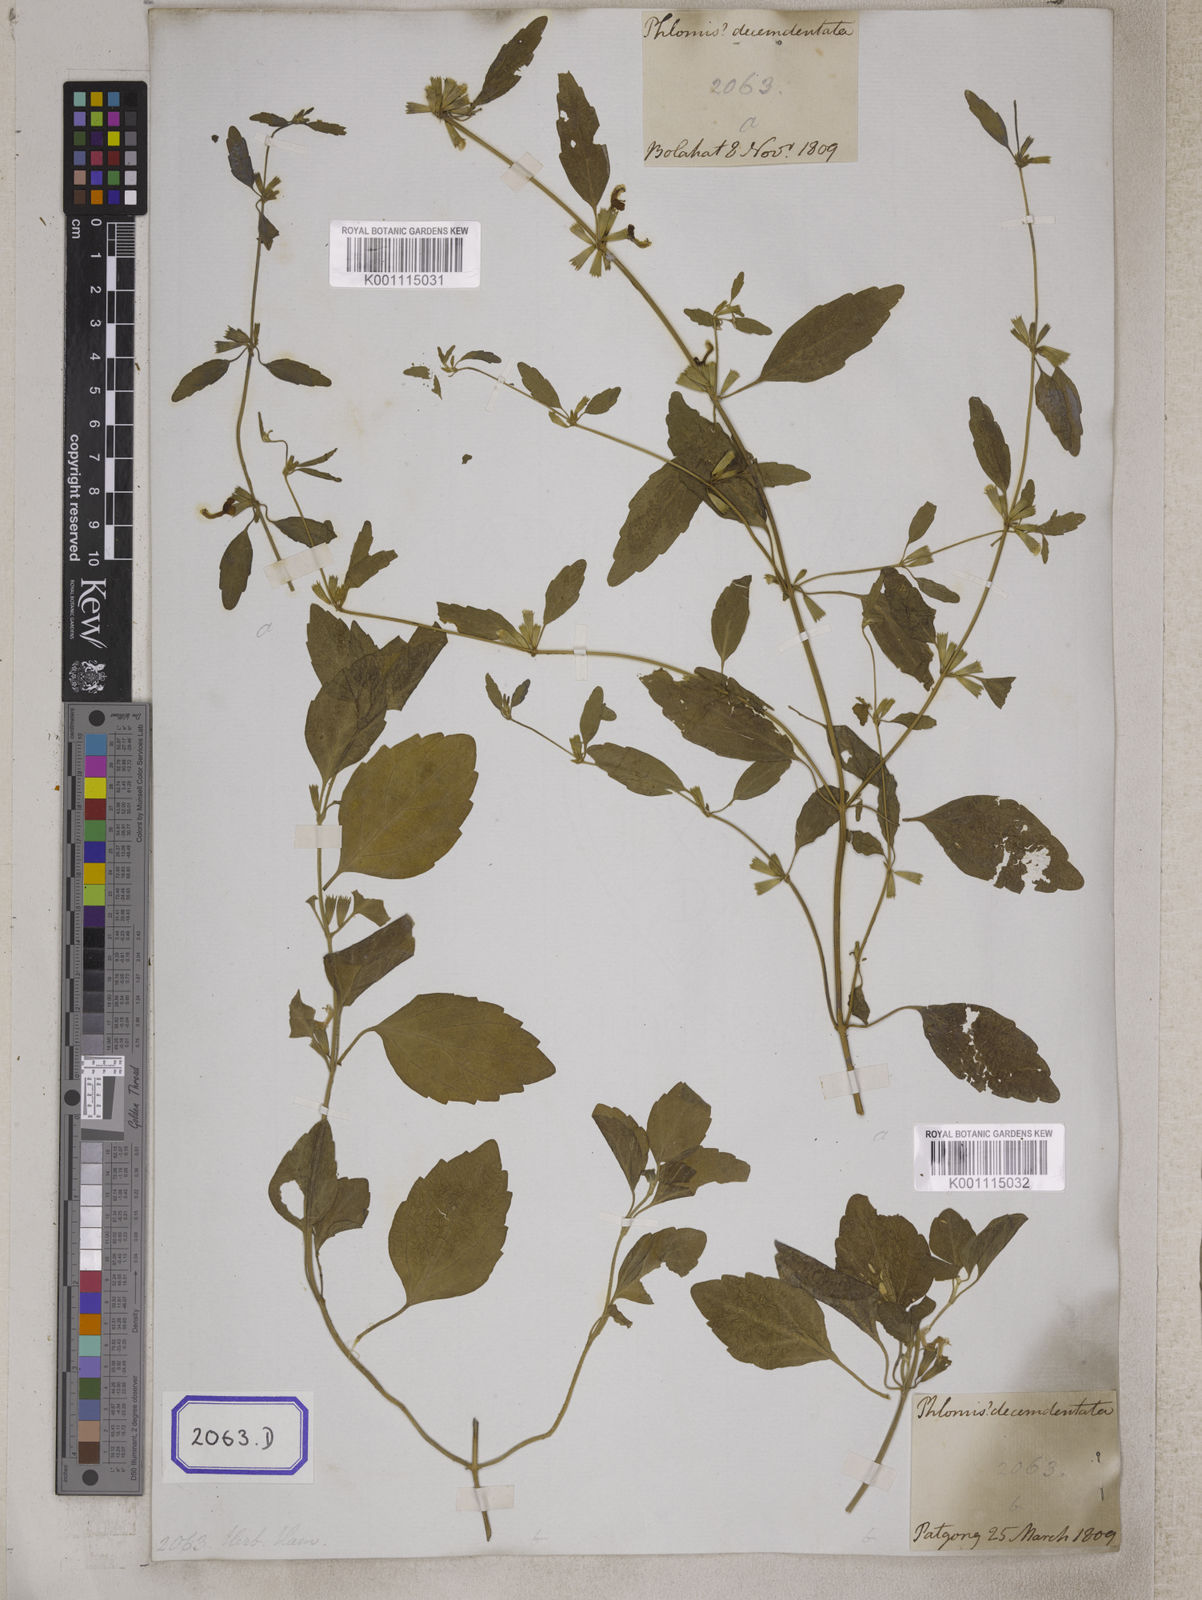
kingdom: Plantae
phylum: Tracheophyta
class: Magnoliopsida
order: Lamiales
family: Lamiaceae
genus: Leucas
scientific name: Leucas
